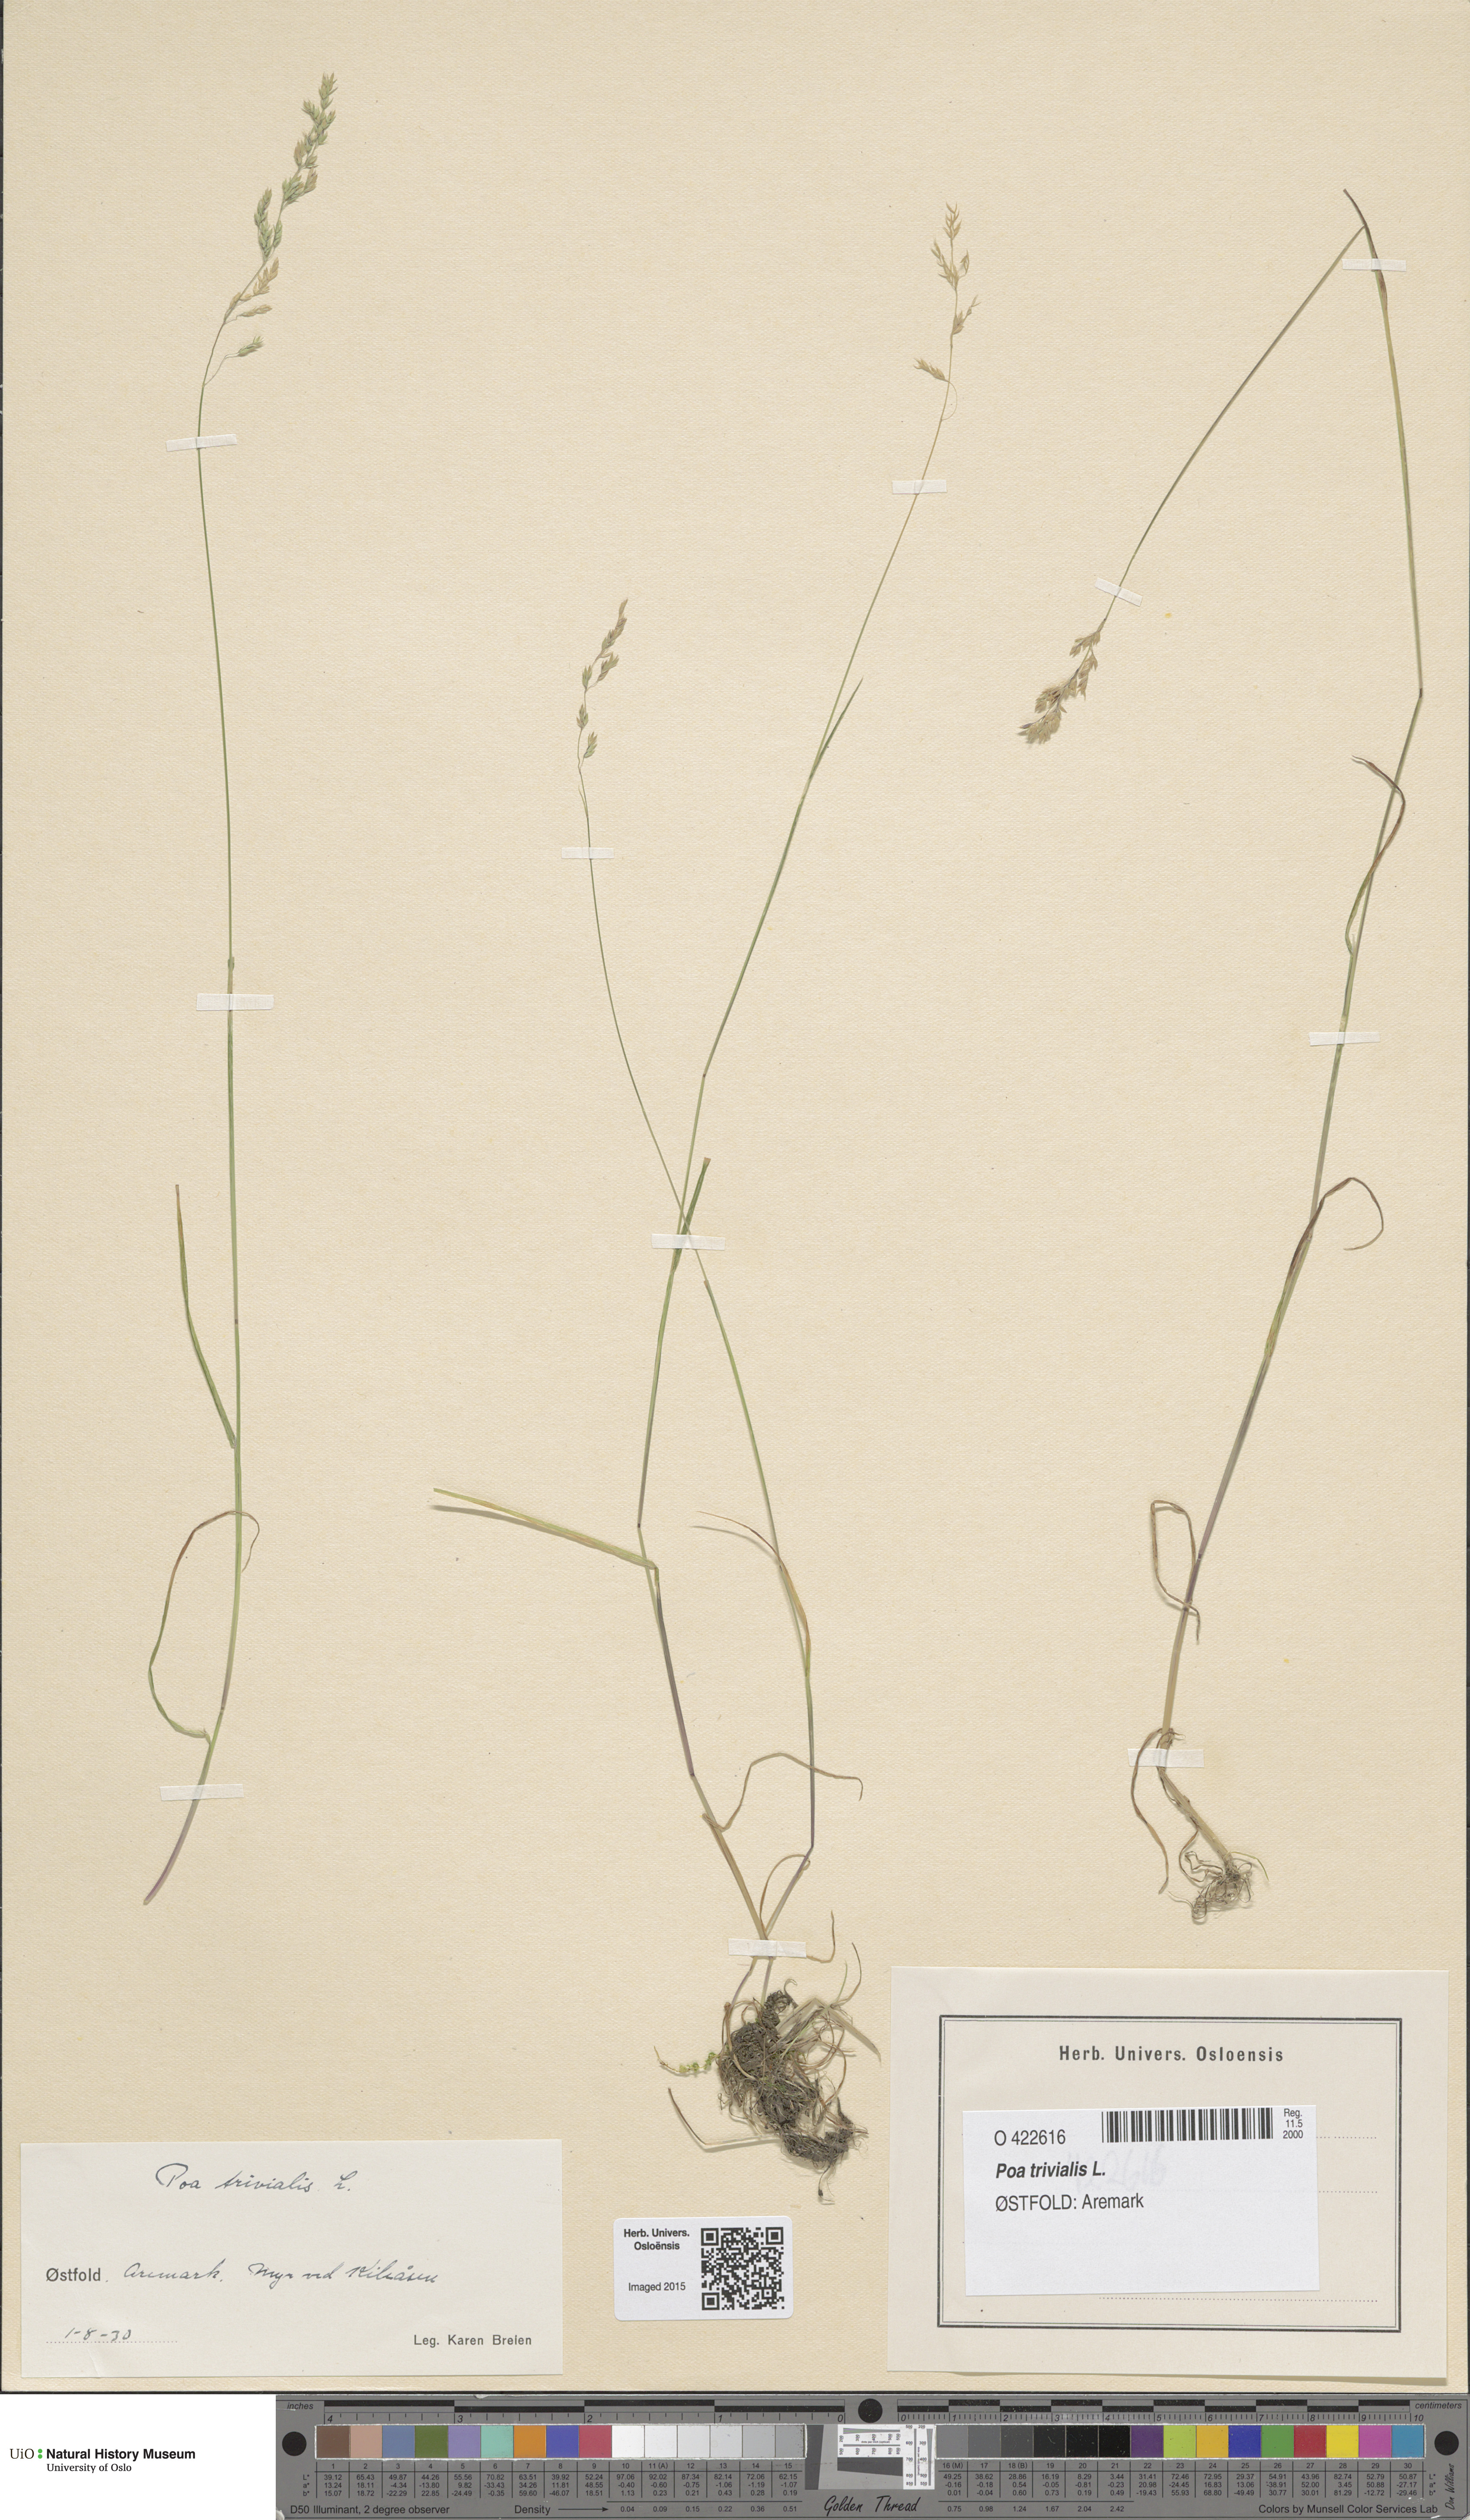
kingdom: Plantae
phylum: Tracheophyta
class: Liliopsida
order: Poales
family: Poaceae
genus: Poa
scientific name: Poa trivialis
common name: Rough bluegrass
